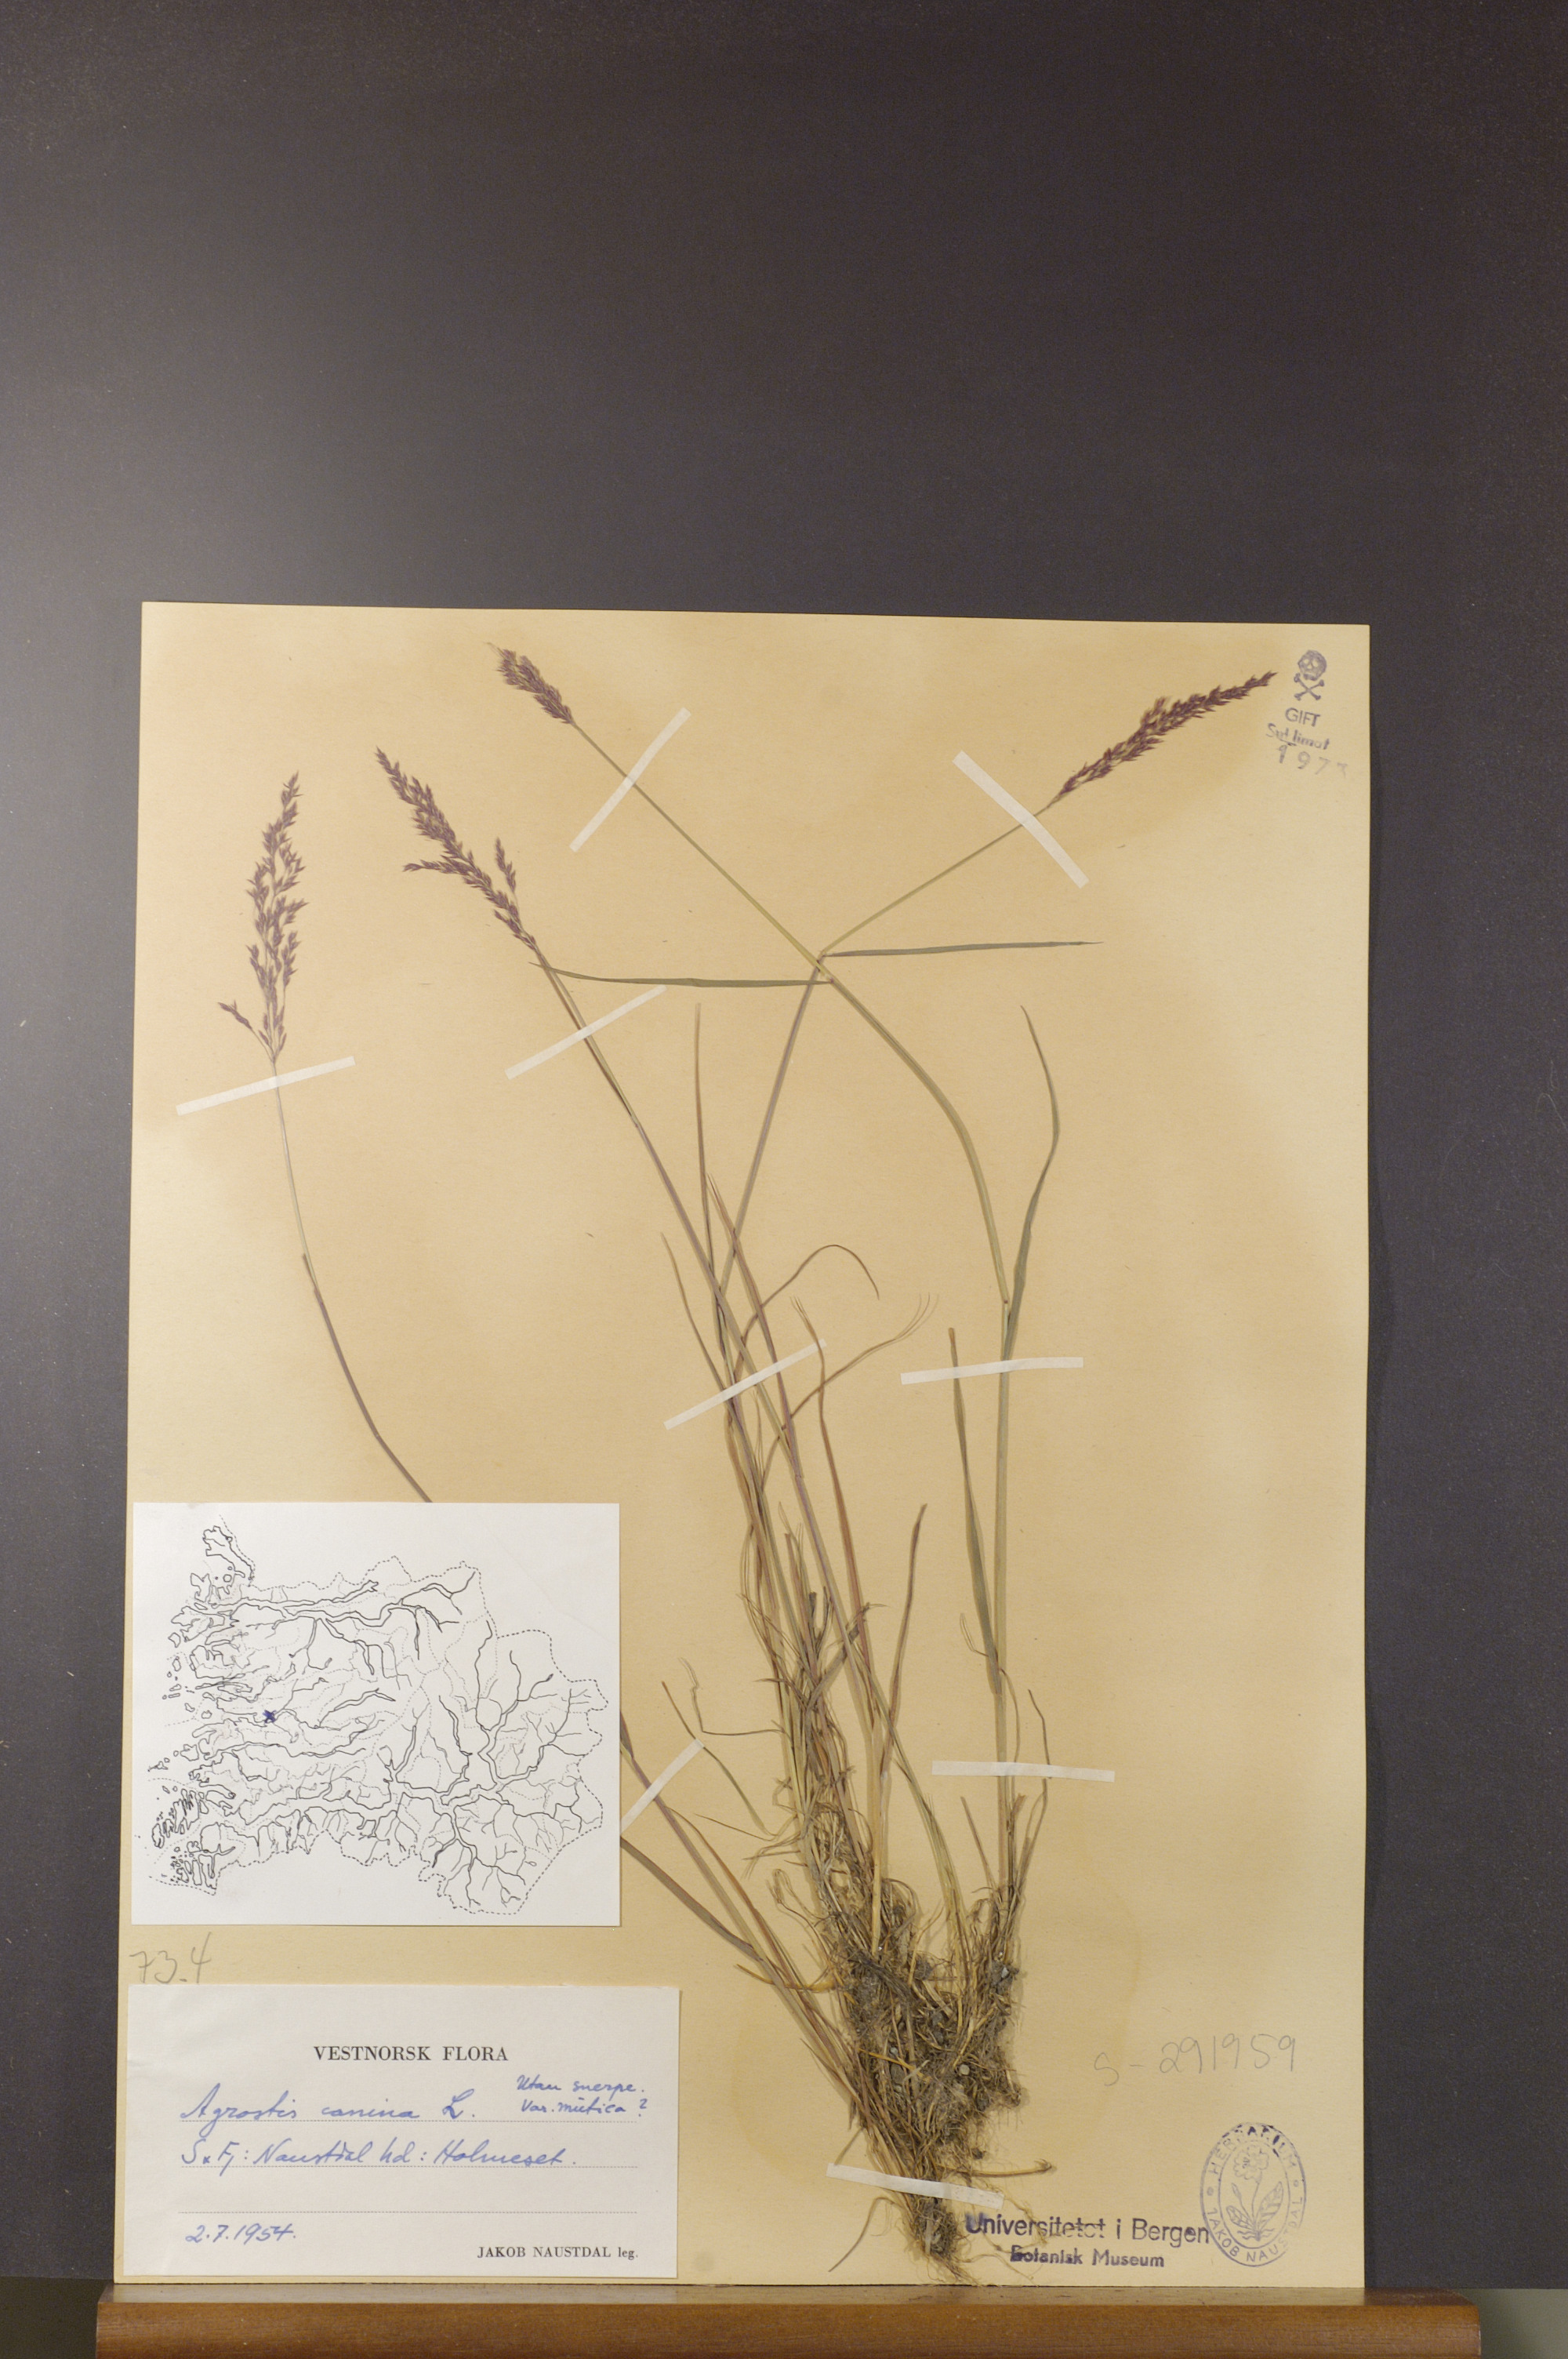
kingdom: Plantae
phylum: Tracheophyta
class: Liliopsida
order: Poales
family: Poaceae
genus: Agrostis
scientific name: Agrostis vinealis
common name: Brown bent
